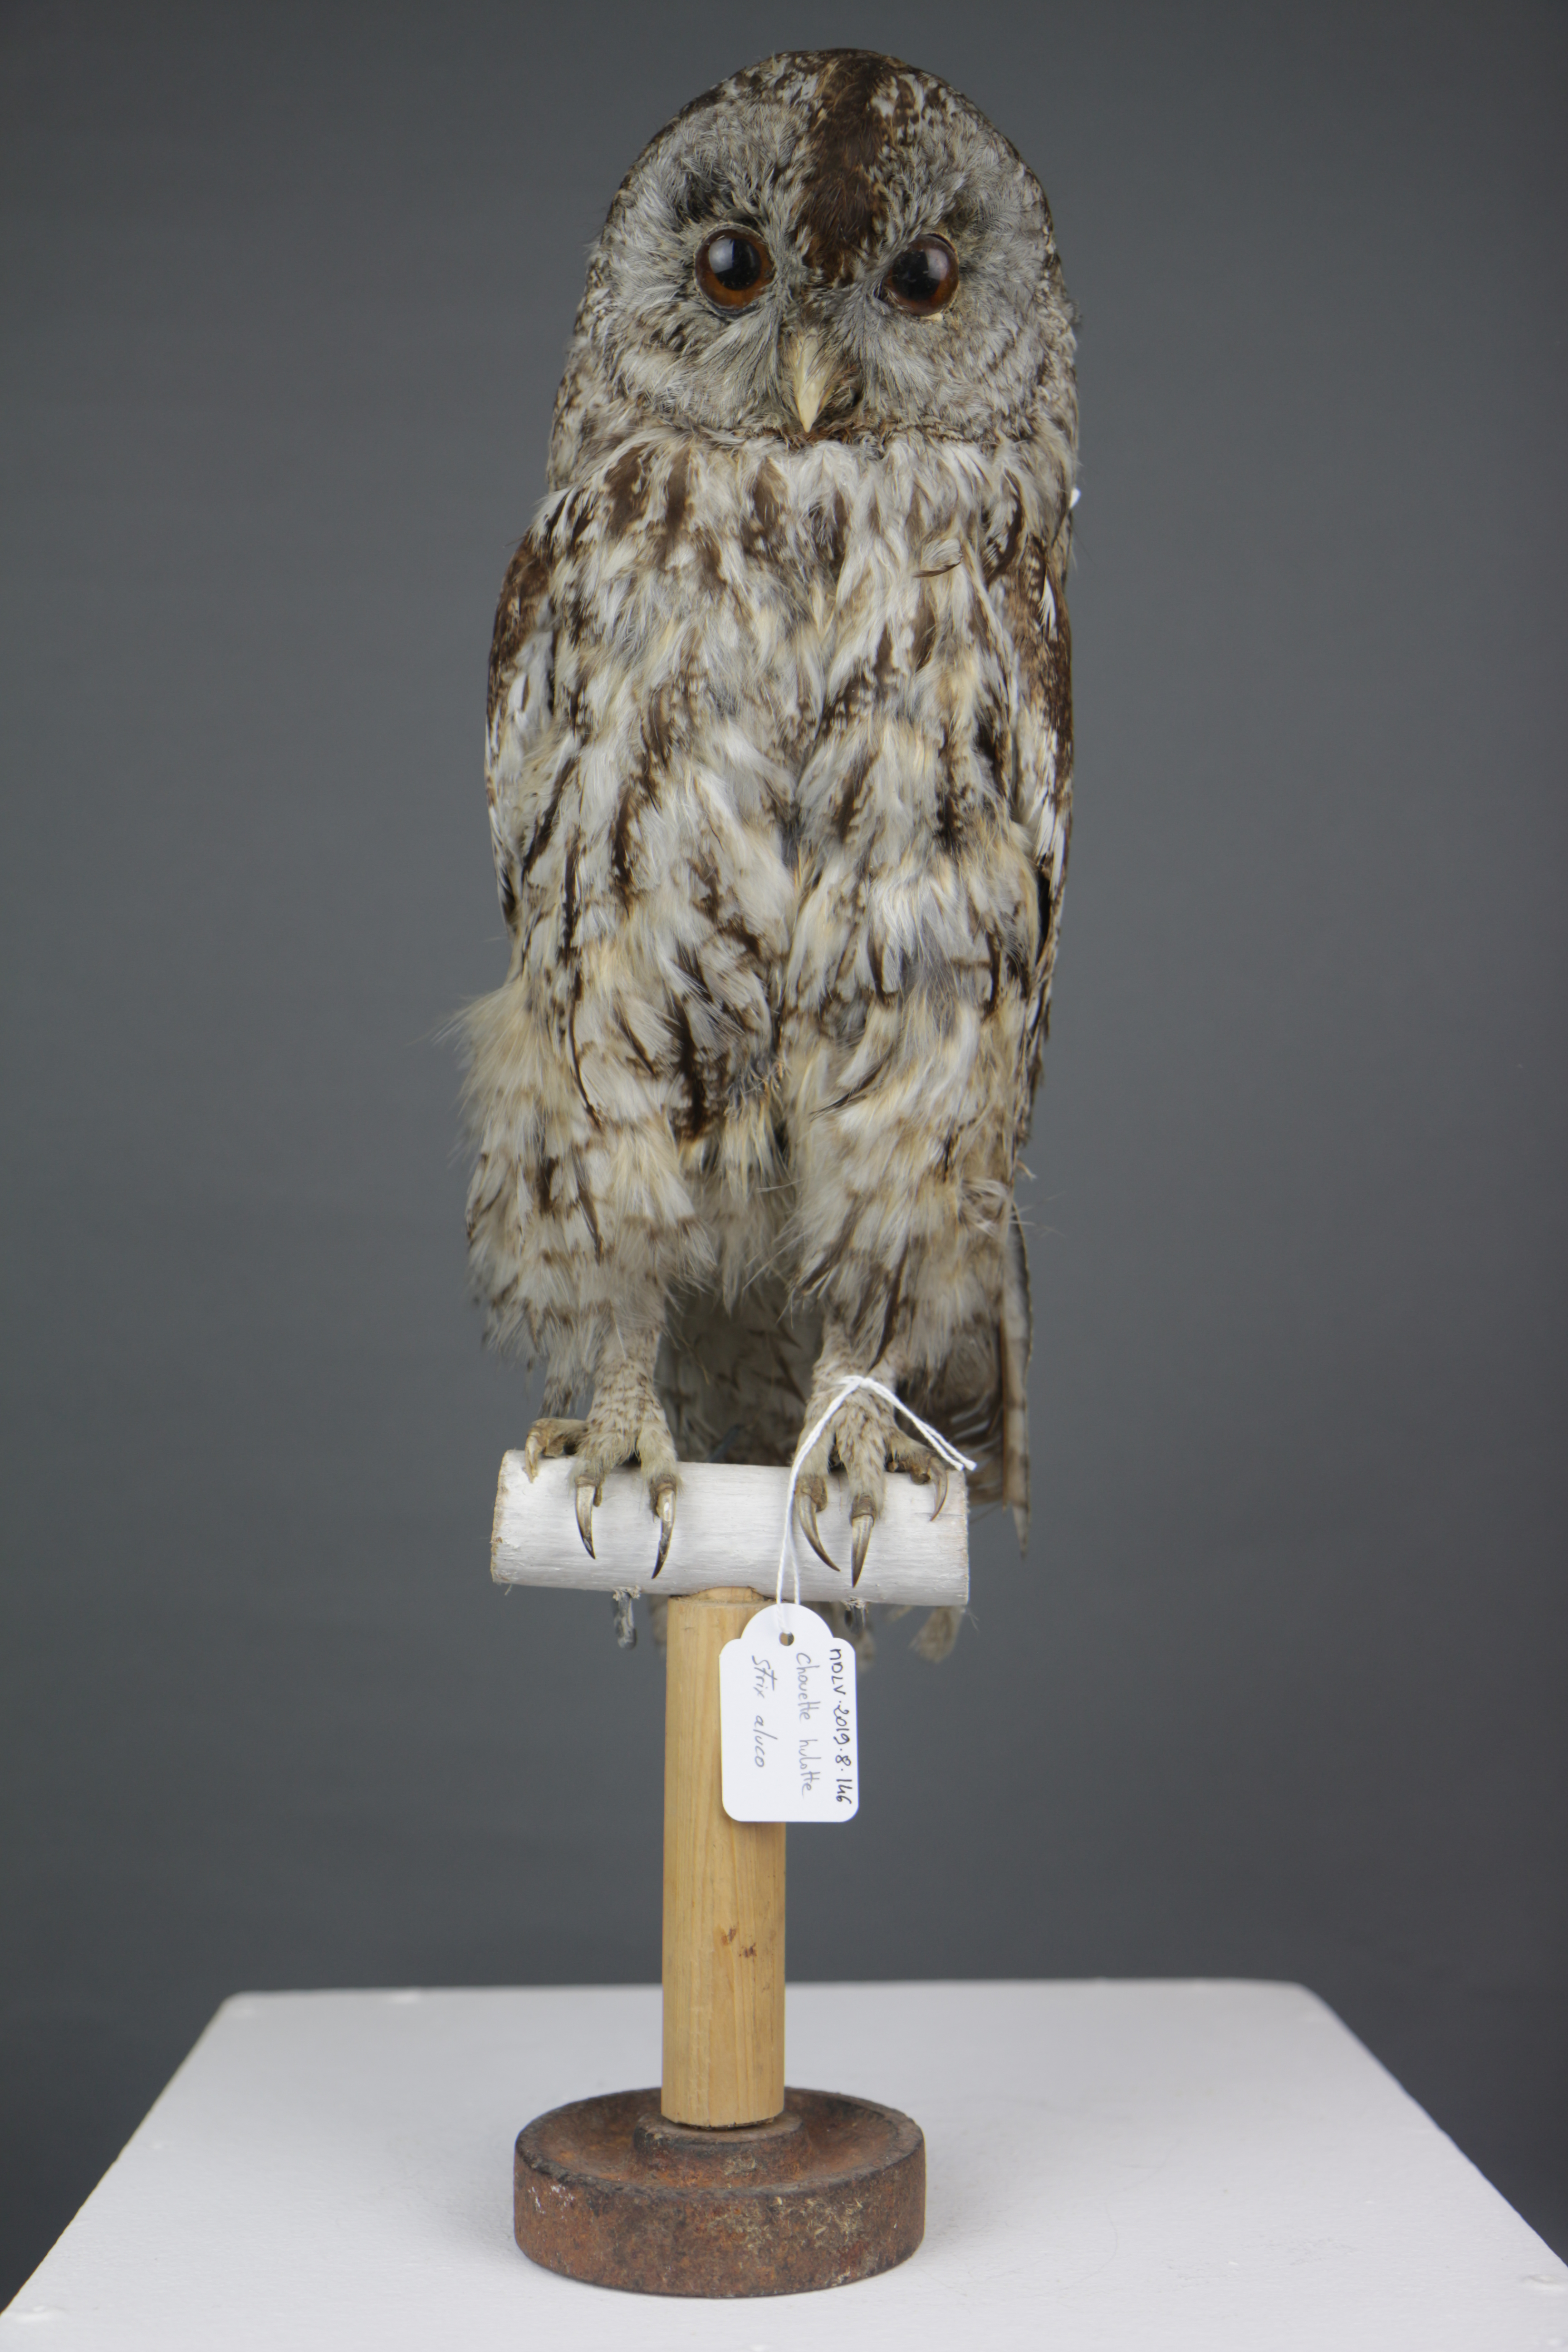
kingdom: Animalia
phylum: Chordata
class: Aves
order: Strigiformes
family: Strigidae
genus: Strix
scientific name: Strix aluco
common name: Tawny owl
